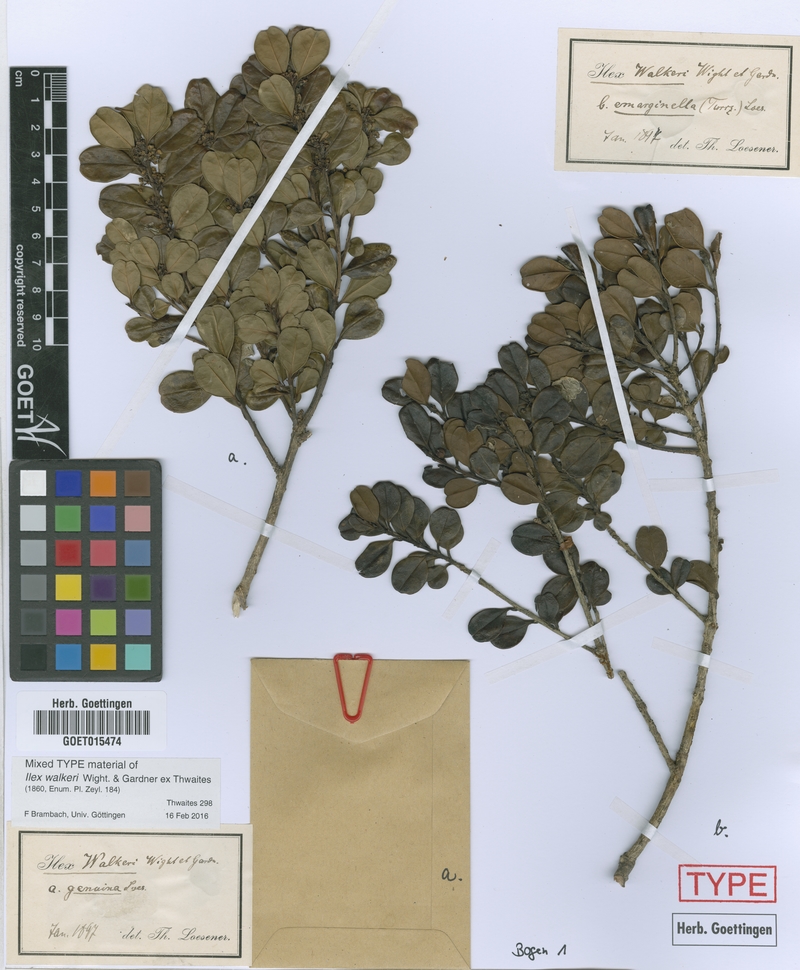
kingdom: Plantae
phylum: Tracheophyta
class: Magnoliopsida
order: Aquifoliales
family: Aquifoliaceae
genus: Ilex
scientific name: Ilex walkeri
